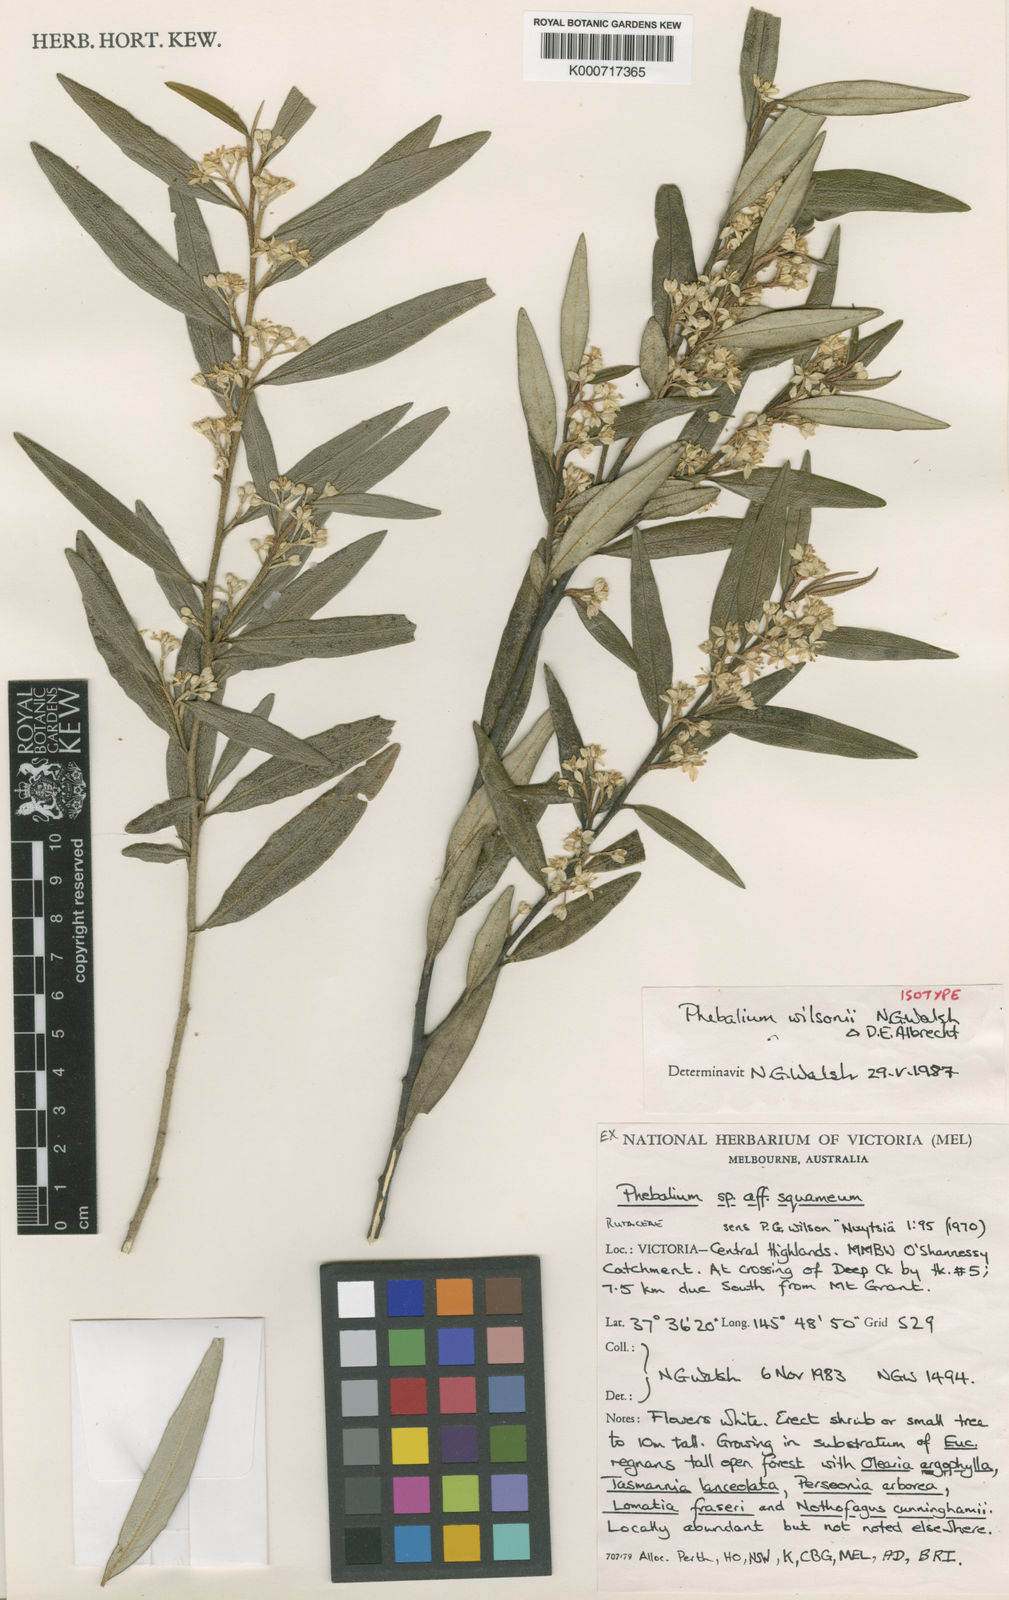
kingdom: Plantae
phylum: Tracheophyta
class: Magnoliopsida
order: Sapindales
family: Rutaceae
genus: Nematolepis
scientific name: Nematolepis wilsonii
